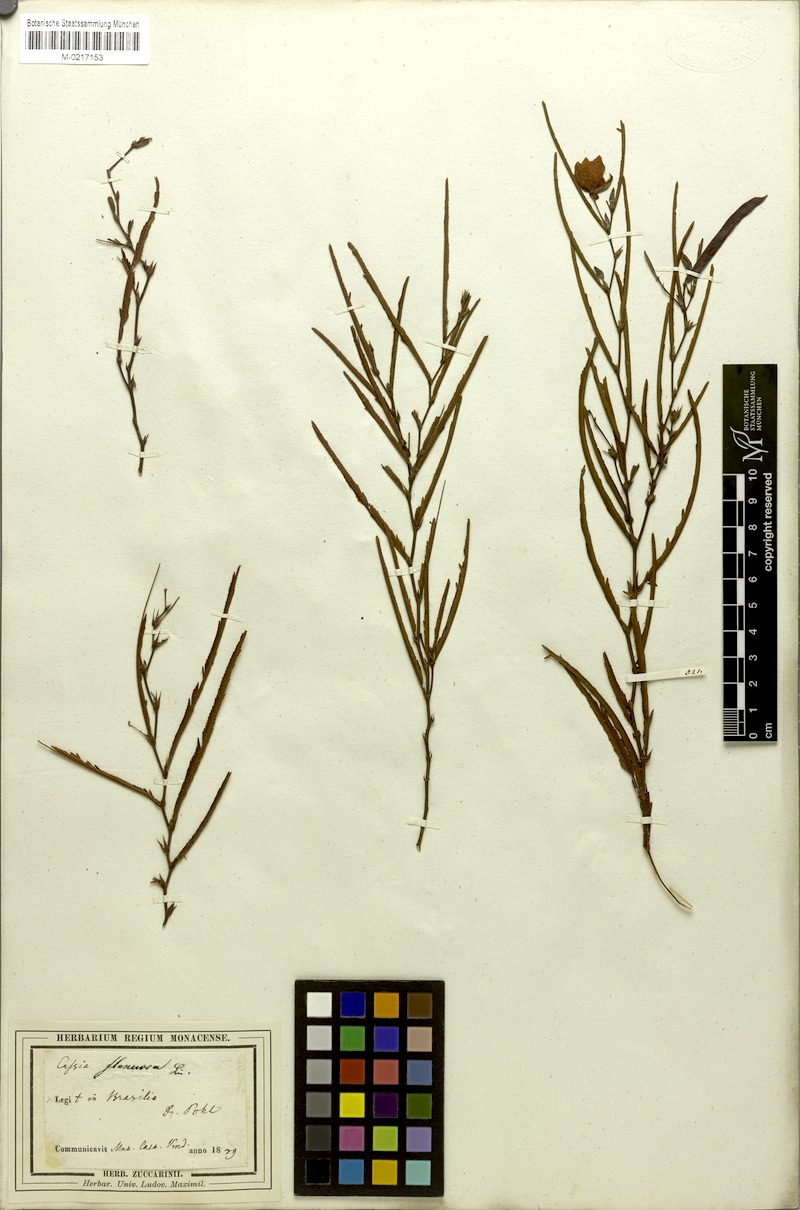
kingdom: Plantae
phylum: Tracheophyta
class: Magnoliopsida
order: Fabales
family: Fabaceae
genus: Chamaecrista
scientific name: Chamaecrista flexuosa
